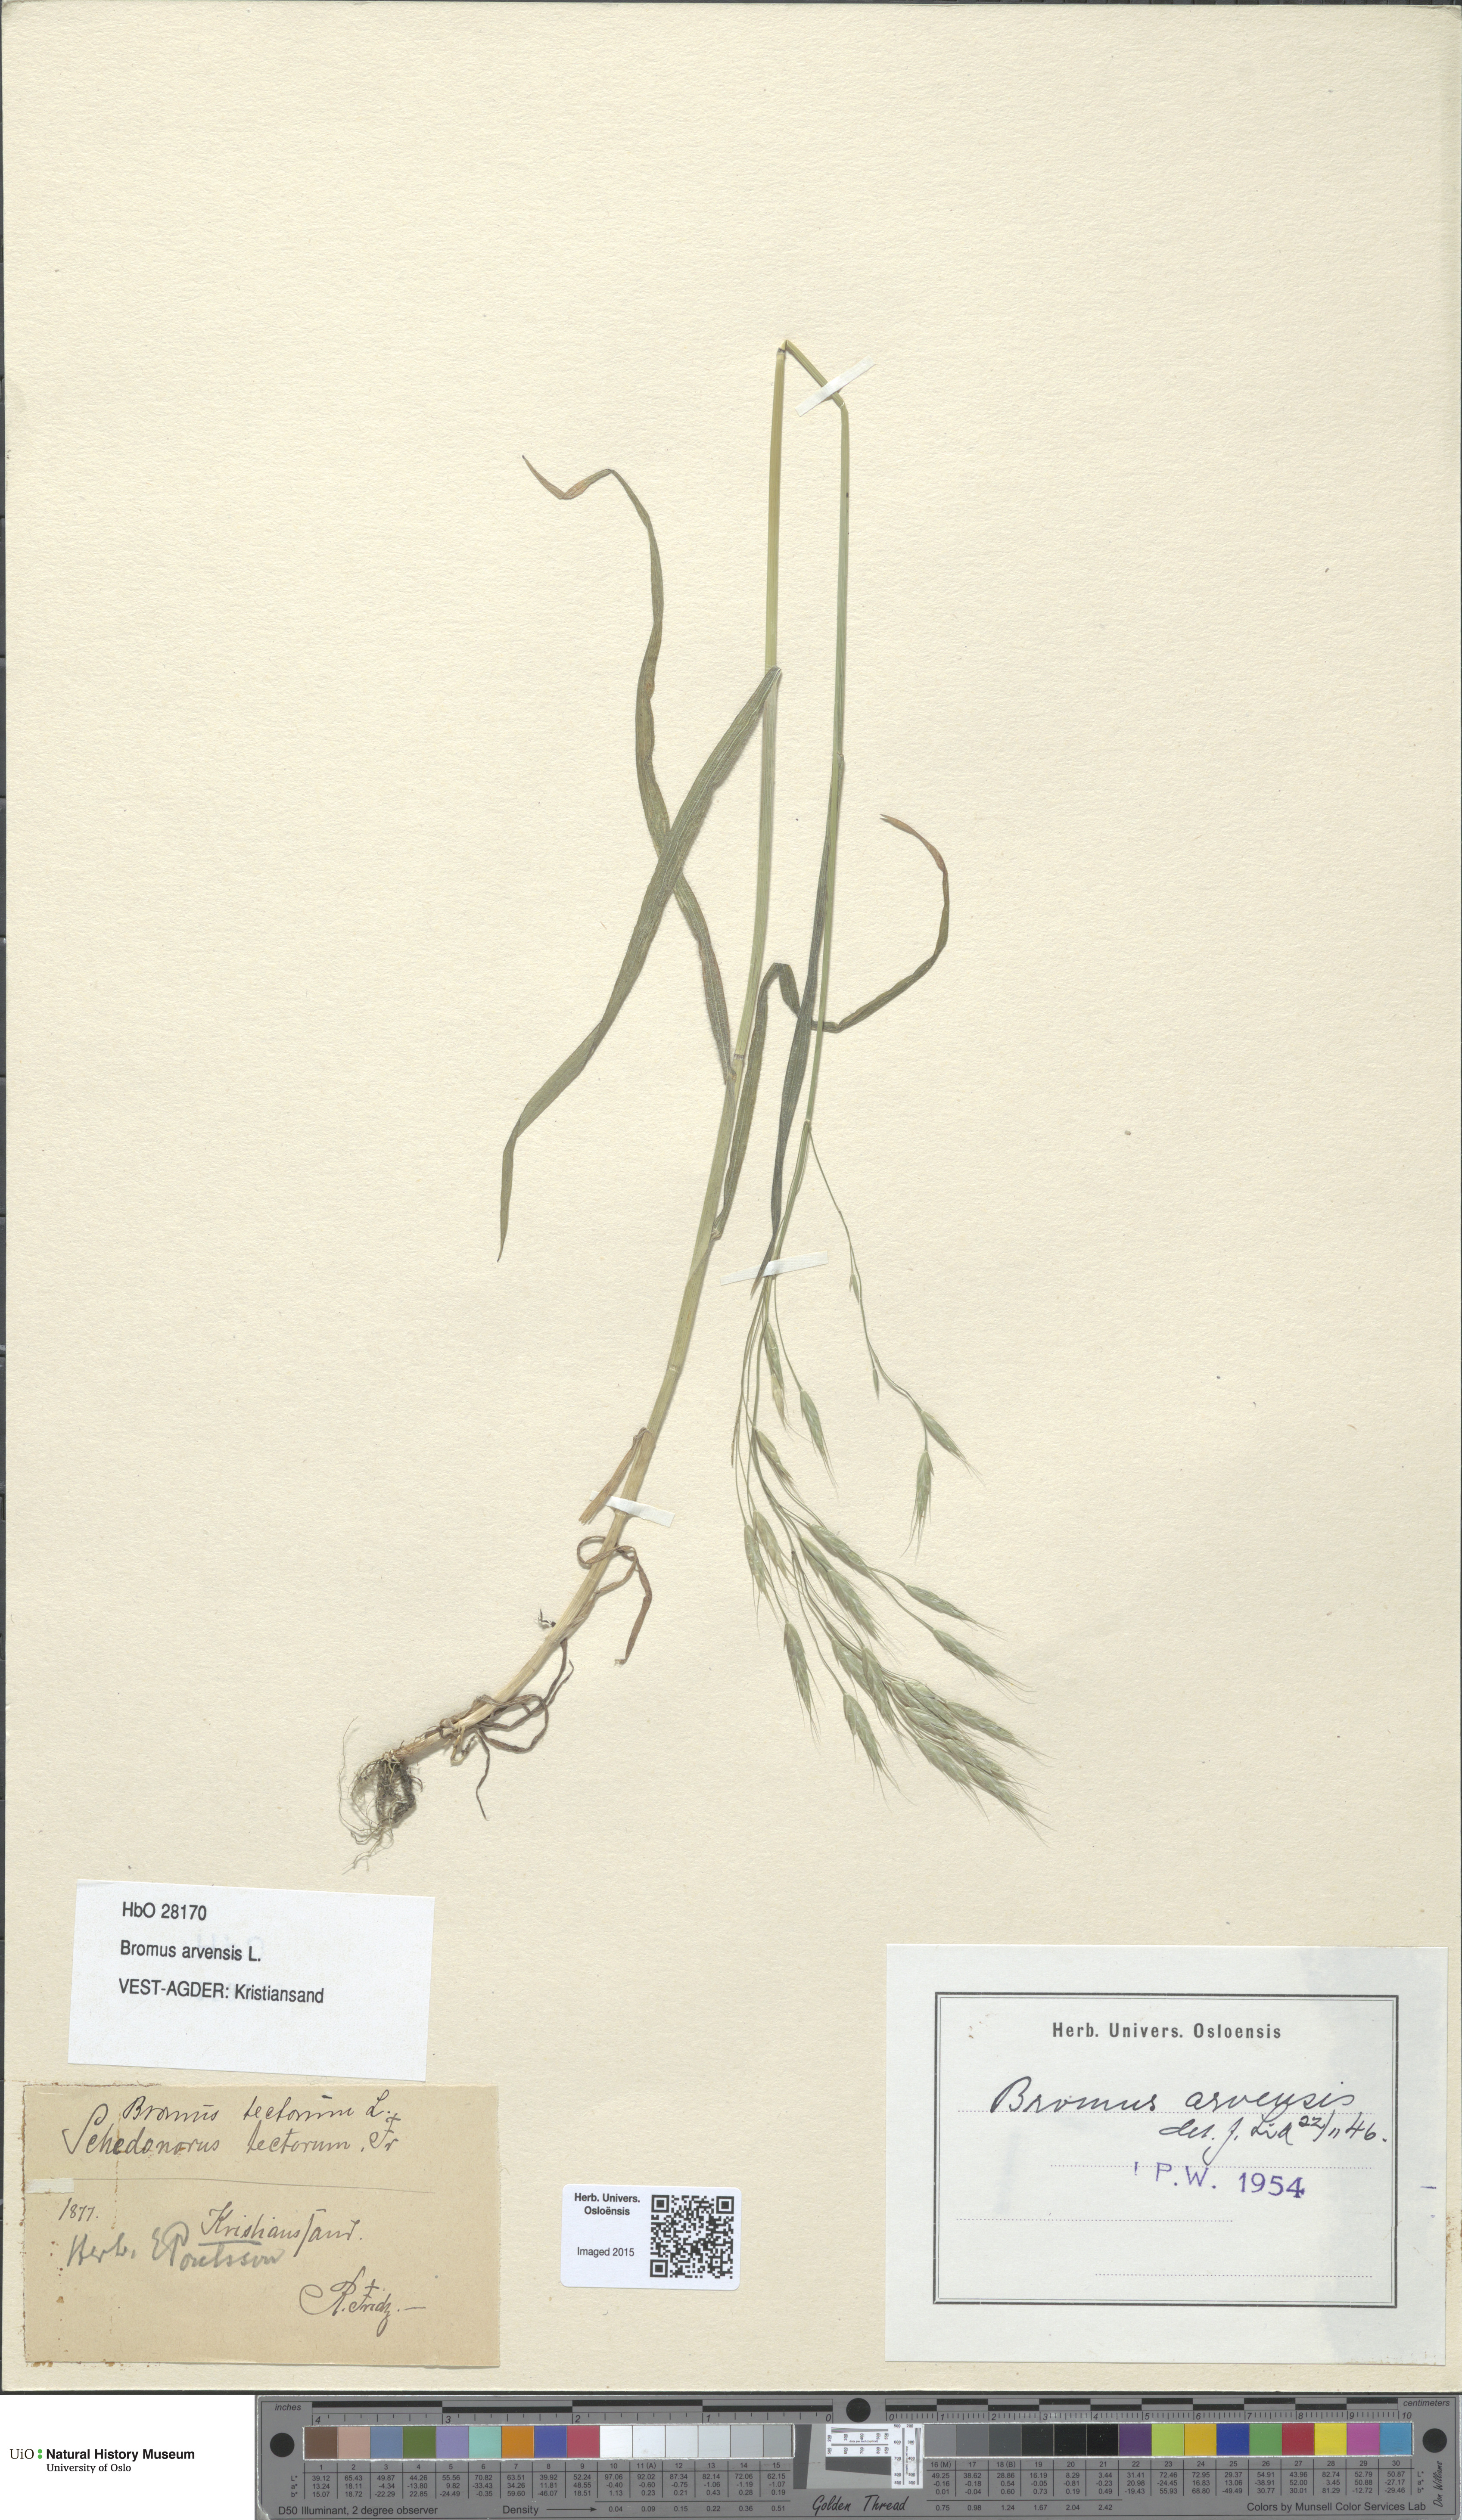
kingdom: Plantae
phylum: Tracheophyta
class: Liliopsida
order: Poales
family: Poaceae
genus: Bromus
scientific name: Bromus arvensis
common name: Field brome
